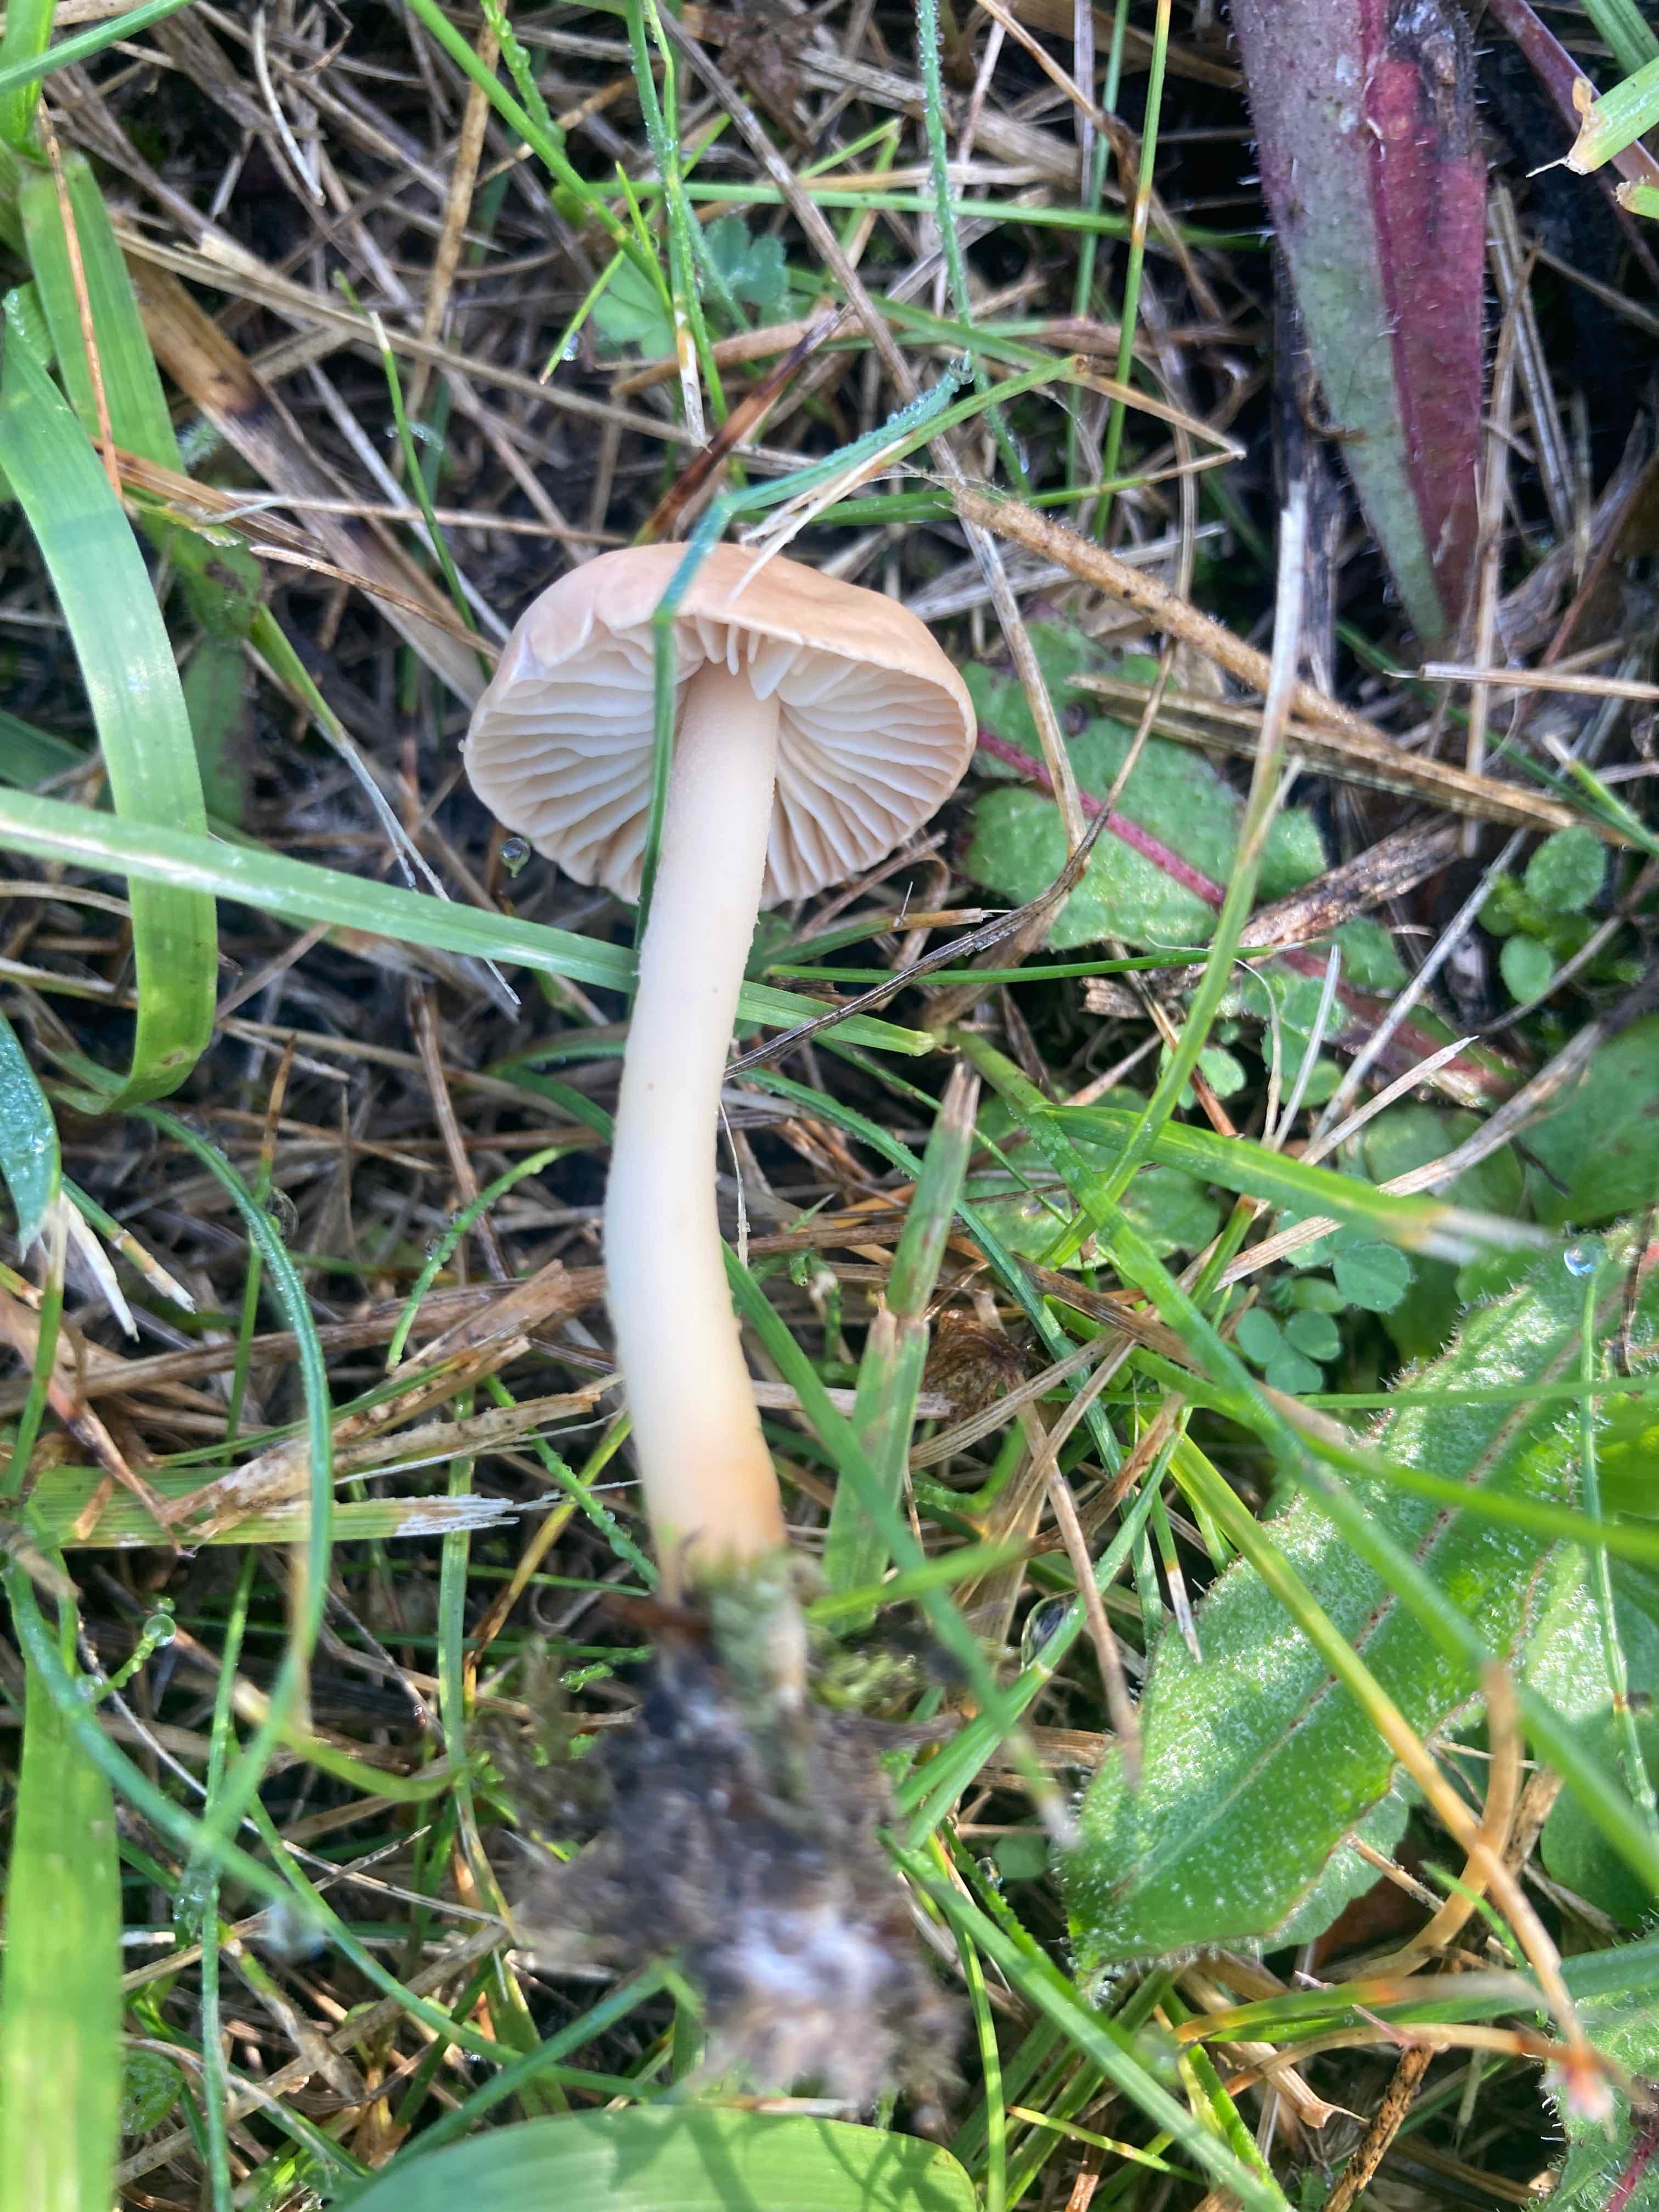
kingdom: Fungi
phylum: Basidiomycota
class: Agaricomycetes
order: Agaricales
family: Marasmiaceae
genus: Marasmius
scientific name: Marasmius oreades
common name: elledans-bruskhat
